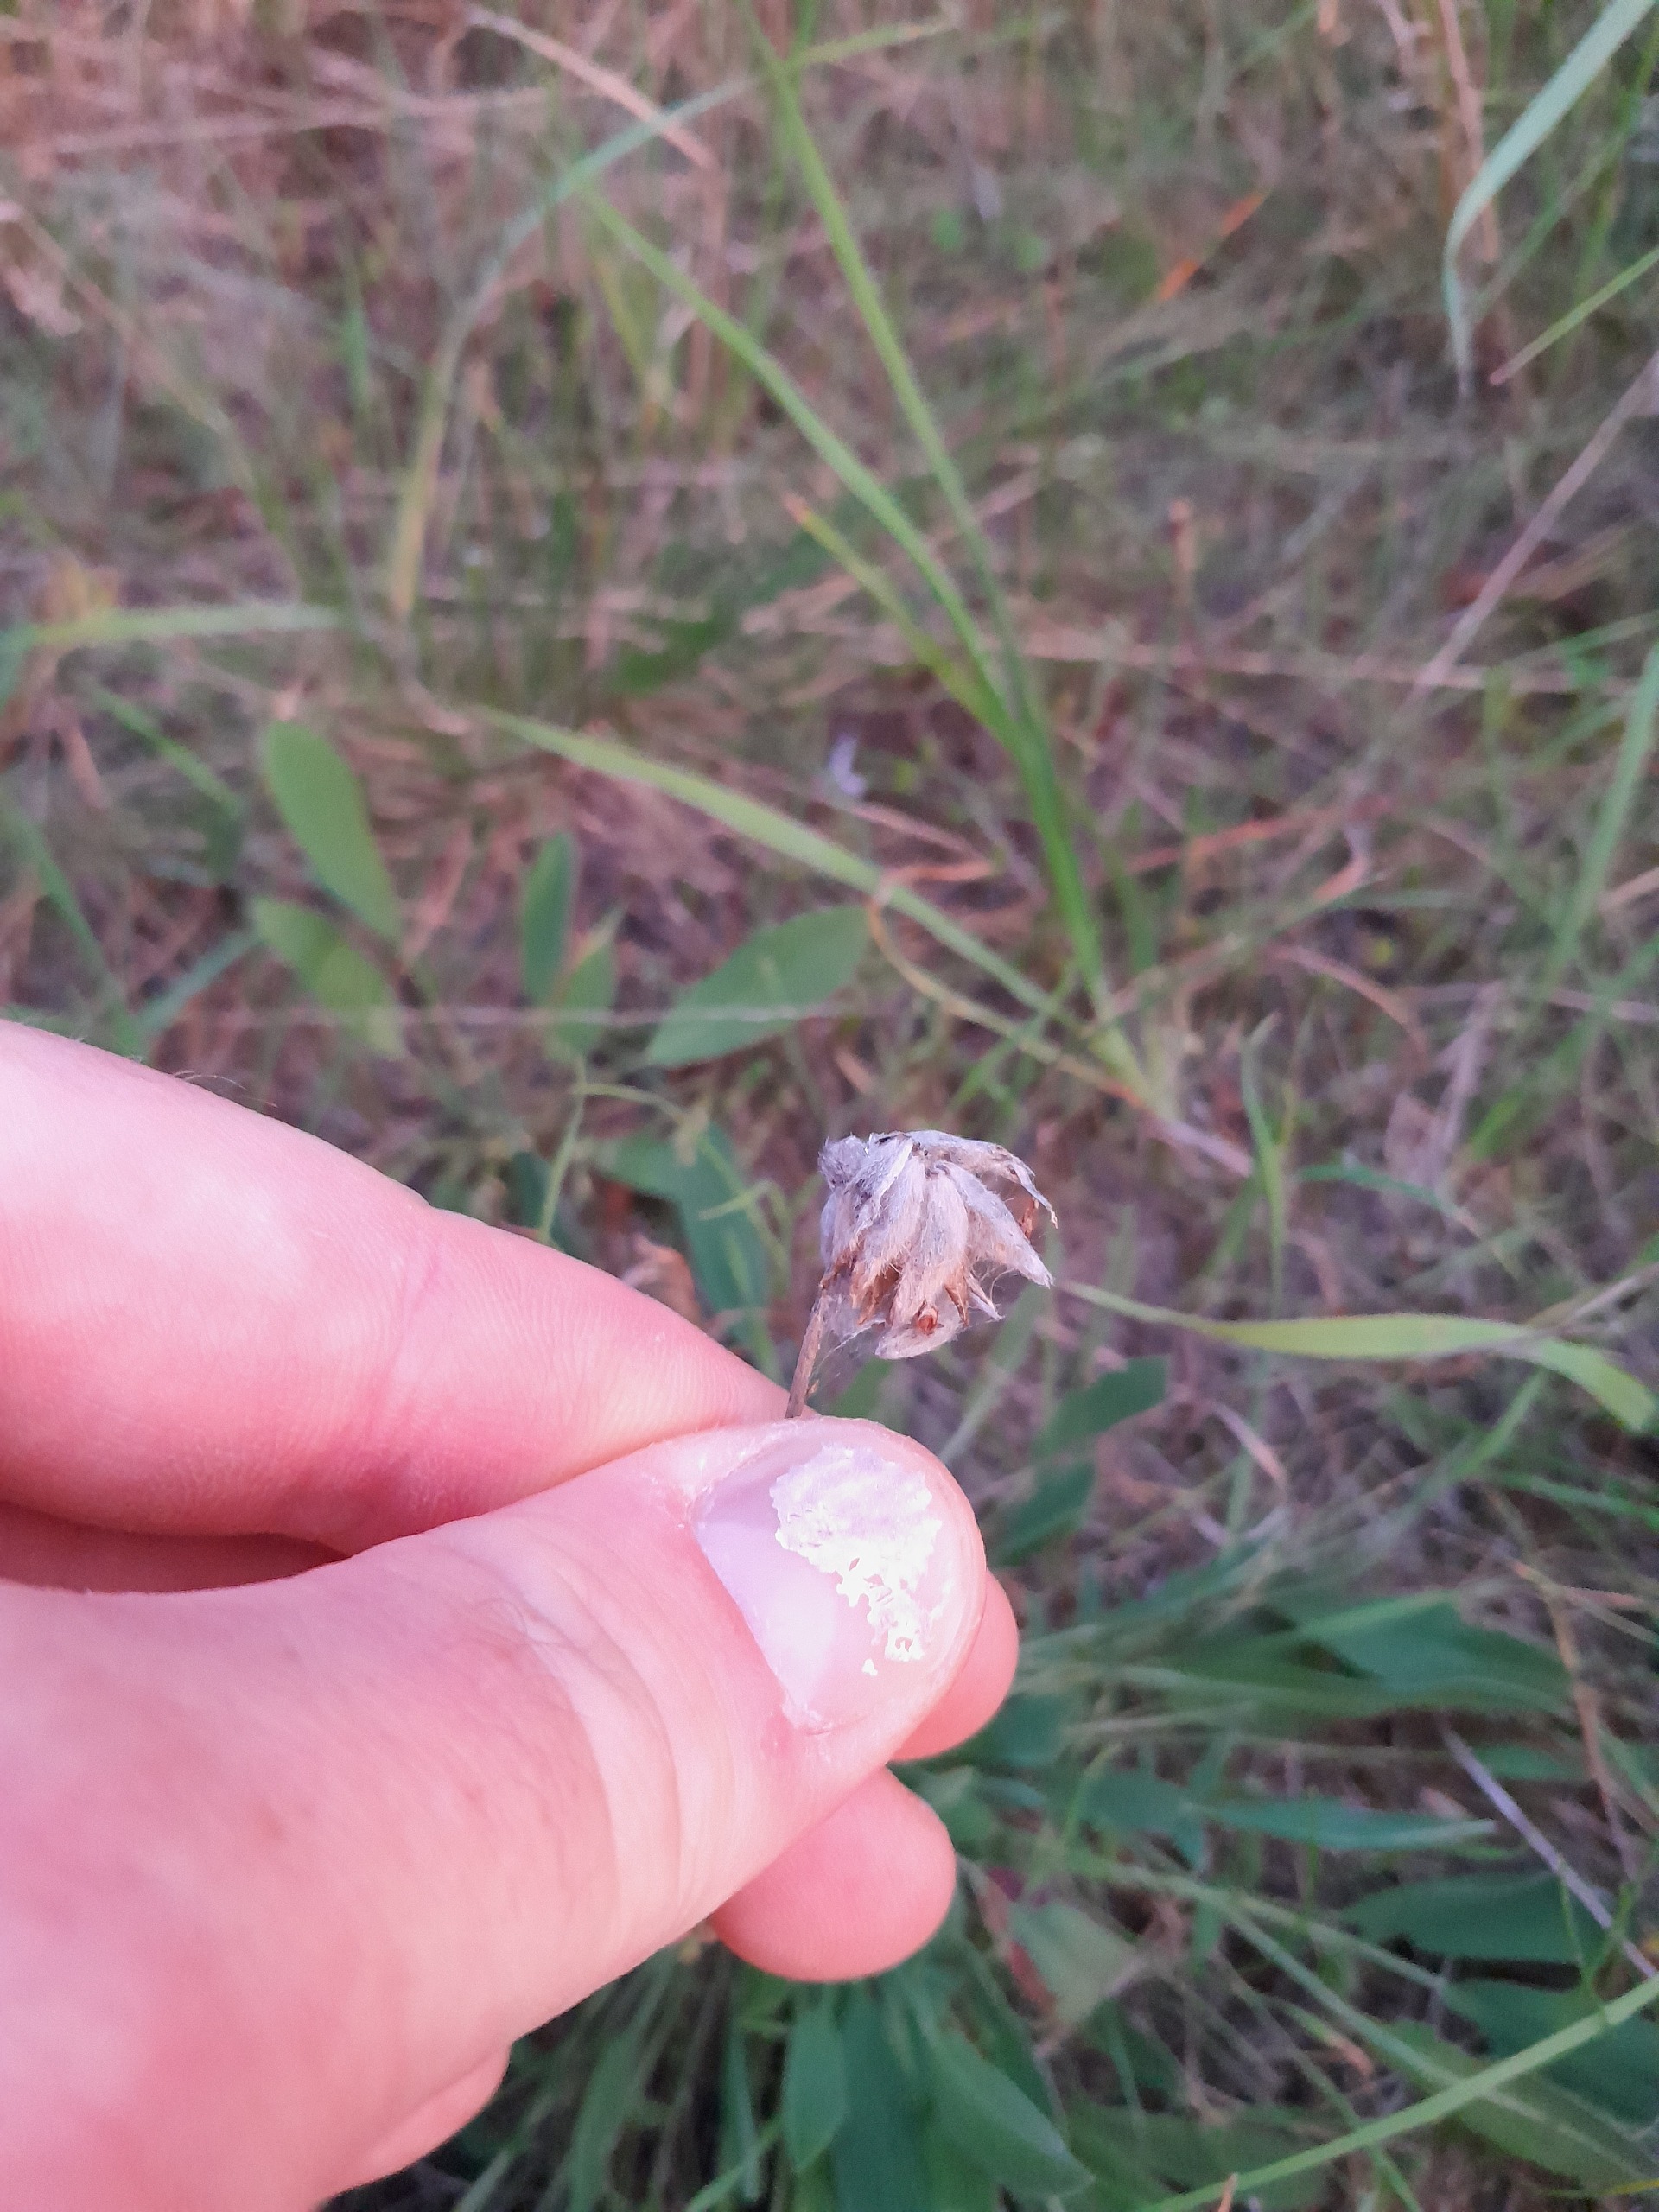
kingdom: Plantae
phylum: Tracheophyta
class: Magnoliopsida
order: Fabales
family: Fabaceae
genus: Anthyllis
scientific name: Anthyllis vulneraria
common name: Rundbælg
